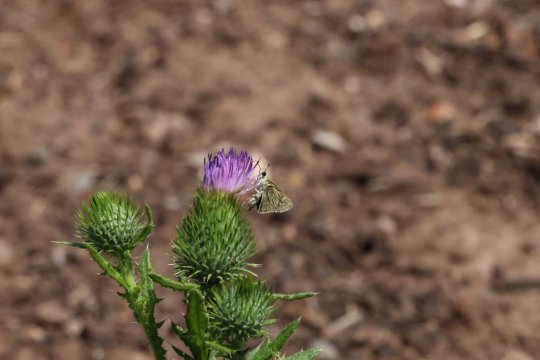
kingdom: Animalia
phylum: Arthropoda
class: Insecta
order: Lepidoptera
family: Hesperiidae
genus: Yvretta
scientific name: Yvretta carus
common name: Carus Skipper
